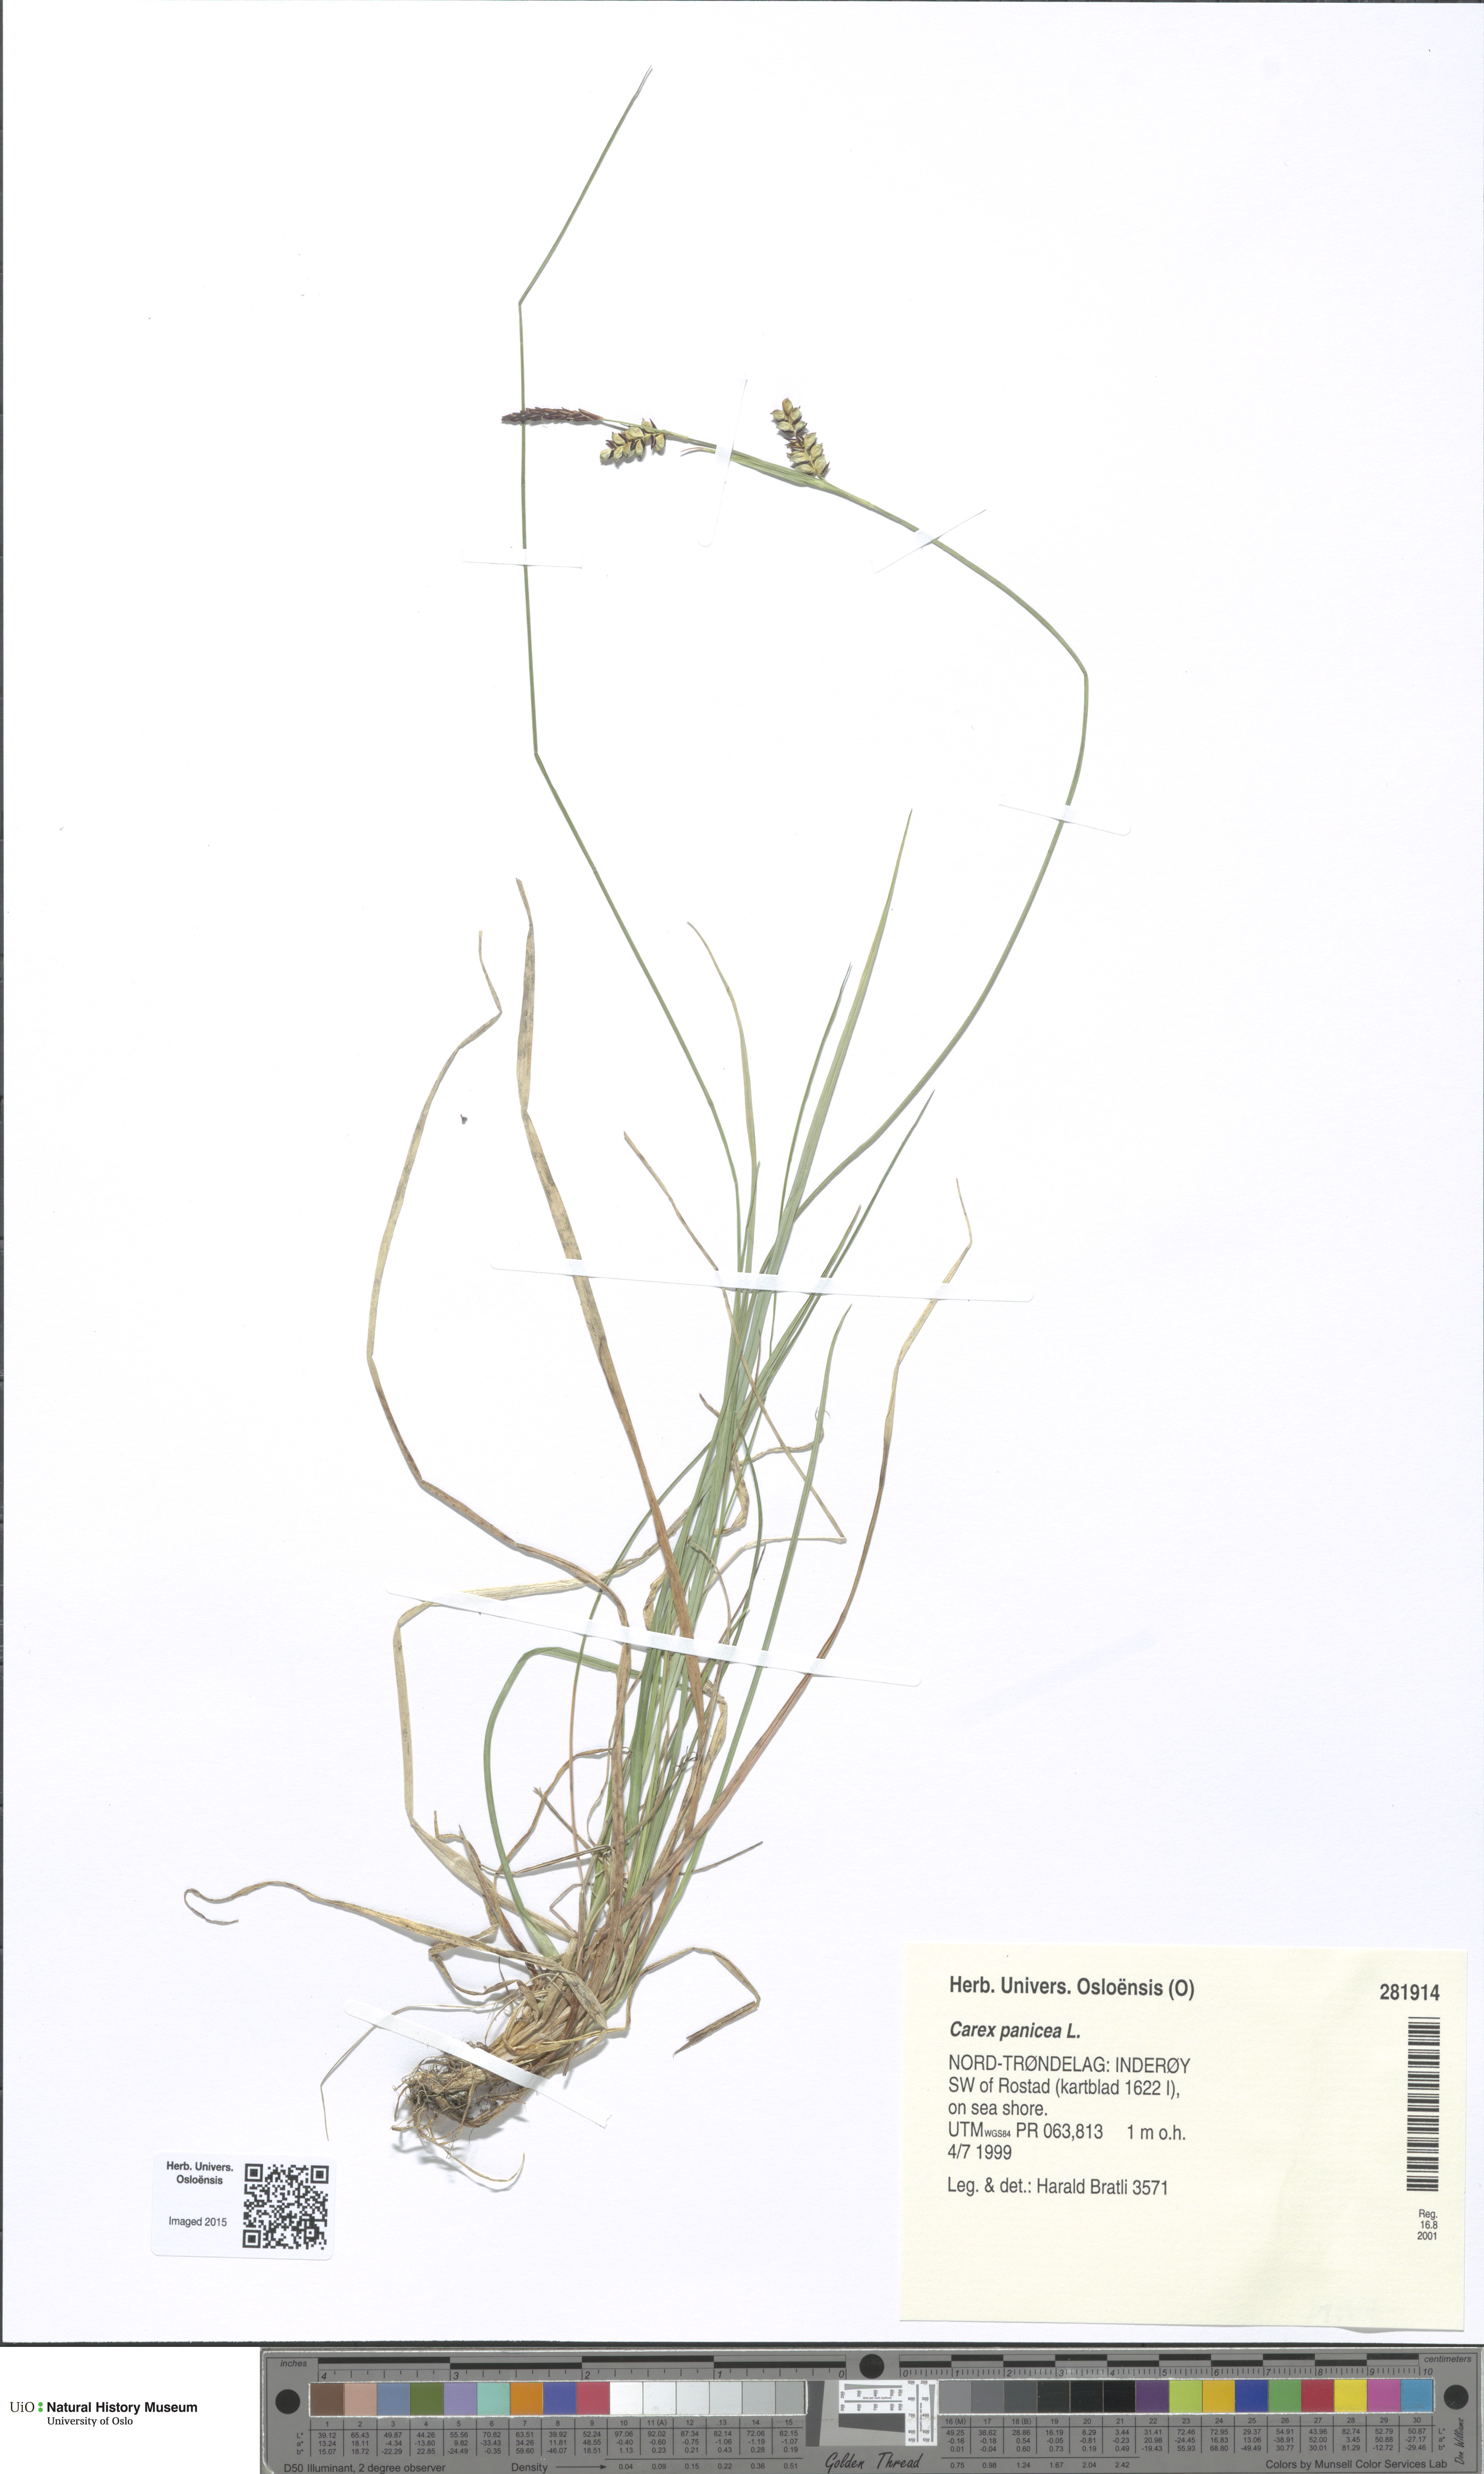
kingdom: Plantae
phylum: Tracheophyta
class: Liliopsida
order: Poales
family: Cyperaceae
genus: Carex
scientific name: Carex panicea
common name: Carnation sedge
